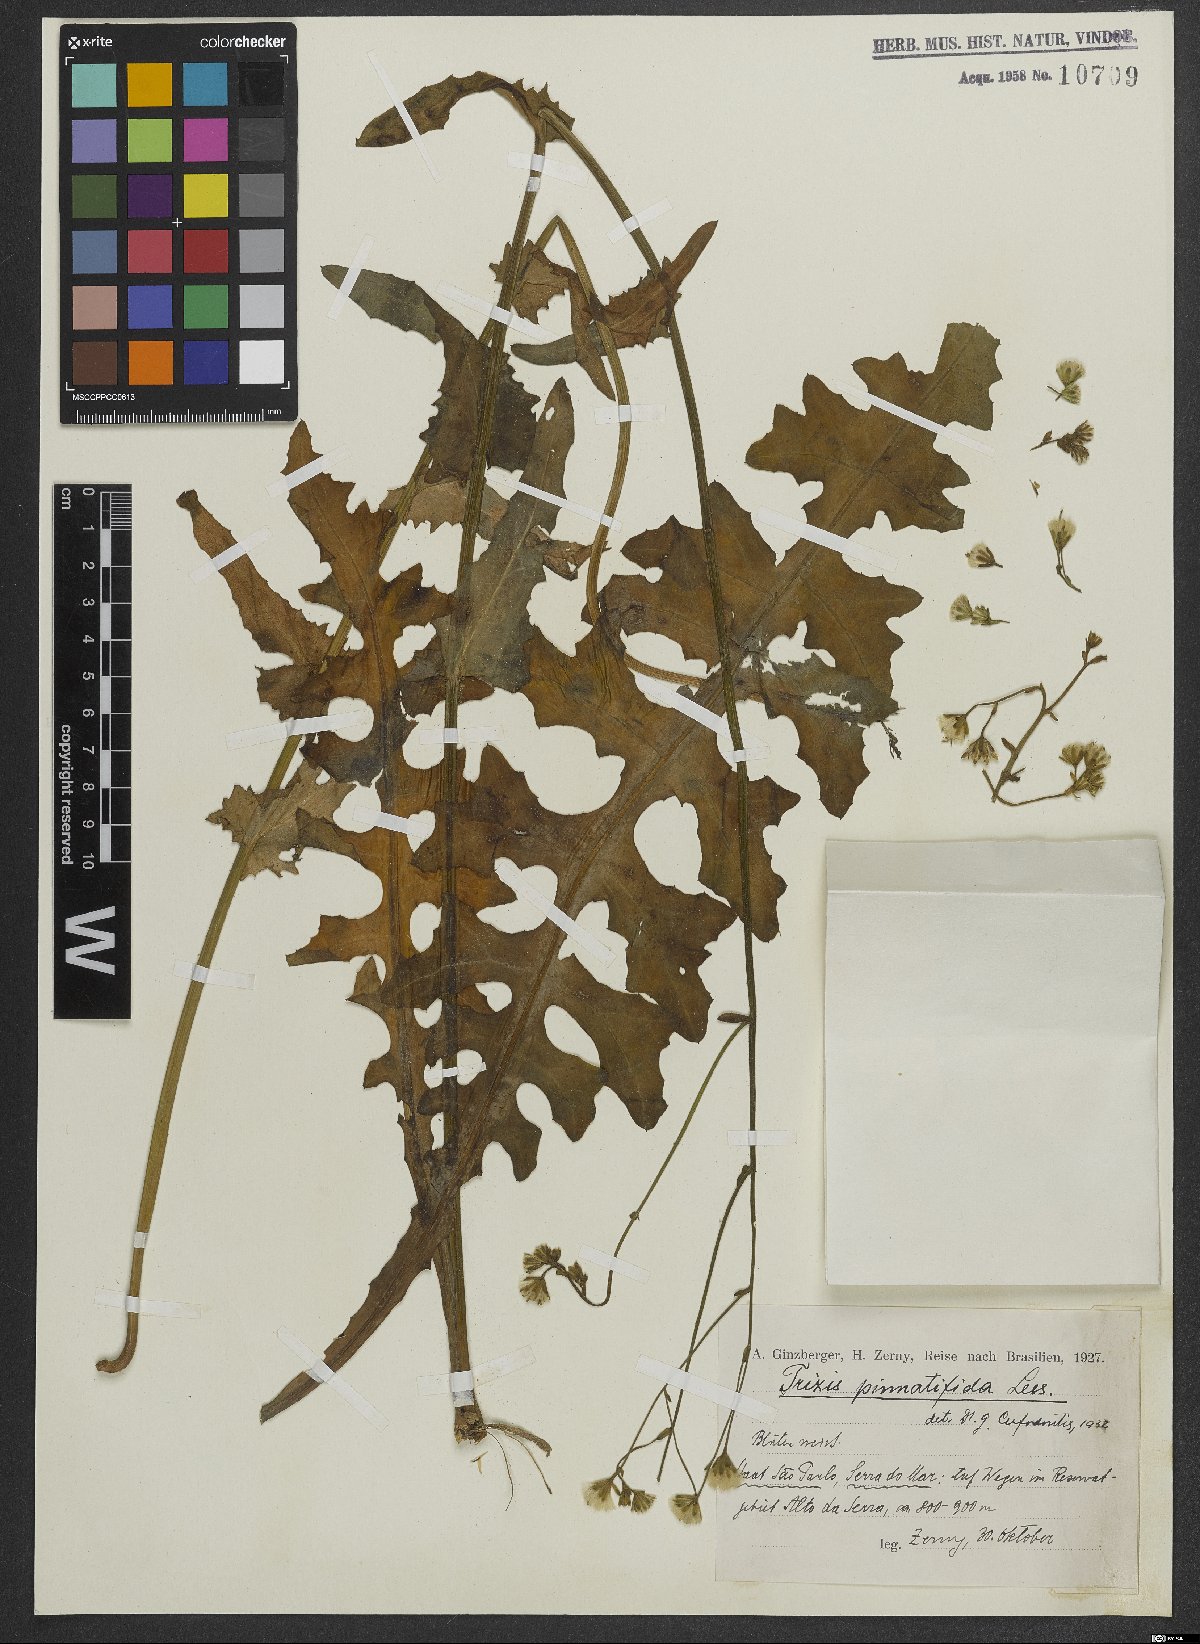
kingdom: Plantae
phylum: Tracheophyta
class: Magnoliopsida
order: Asterales
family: Asteraceae
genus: Holocheilus
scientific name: Holocheilus pinnatifidus
